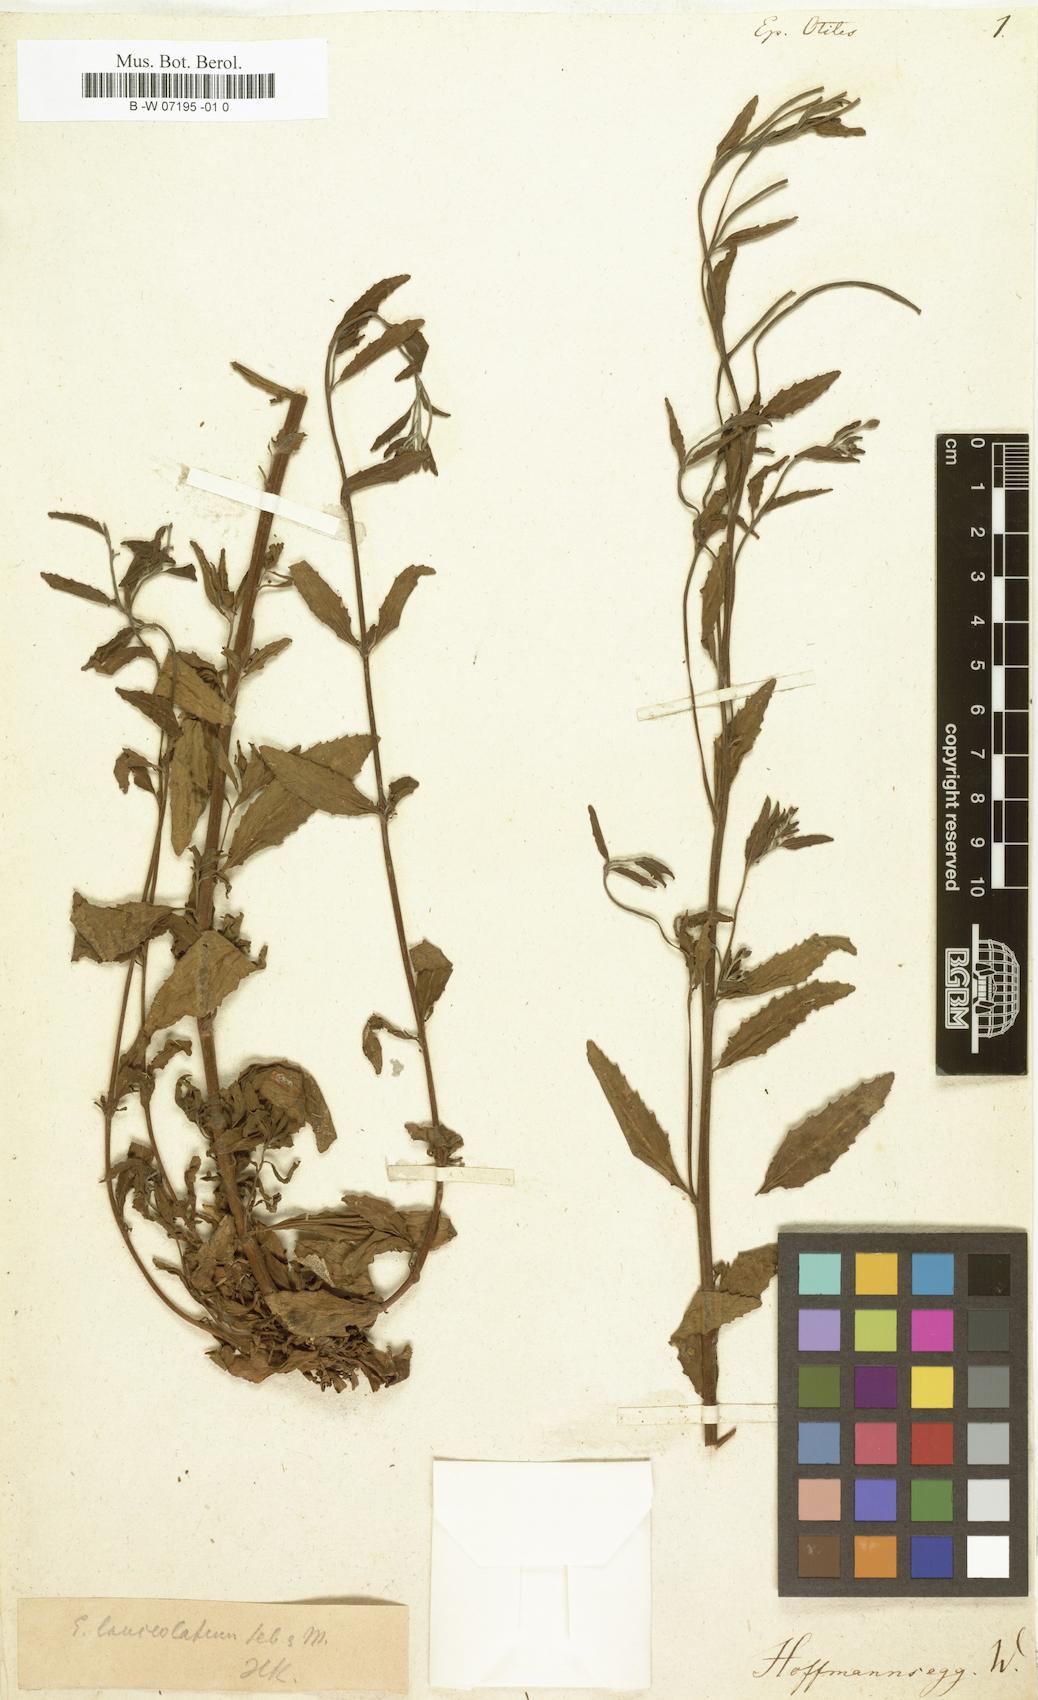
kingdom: Plantae
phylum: Tracheophyta
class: Magnoliopsida
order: Myrtales
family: Onagraceae
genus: Epilobium
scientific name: Epilobium lanceolatum
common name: Spear-leaved willowherb
